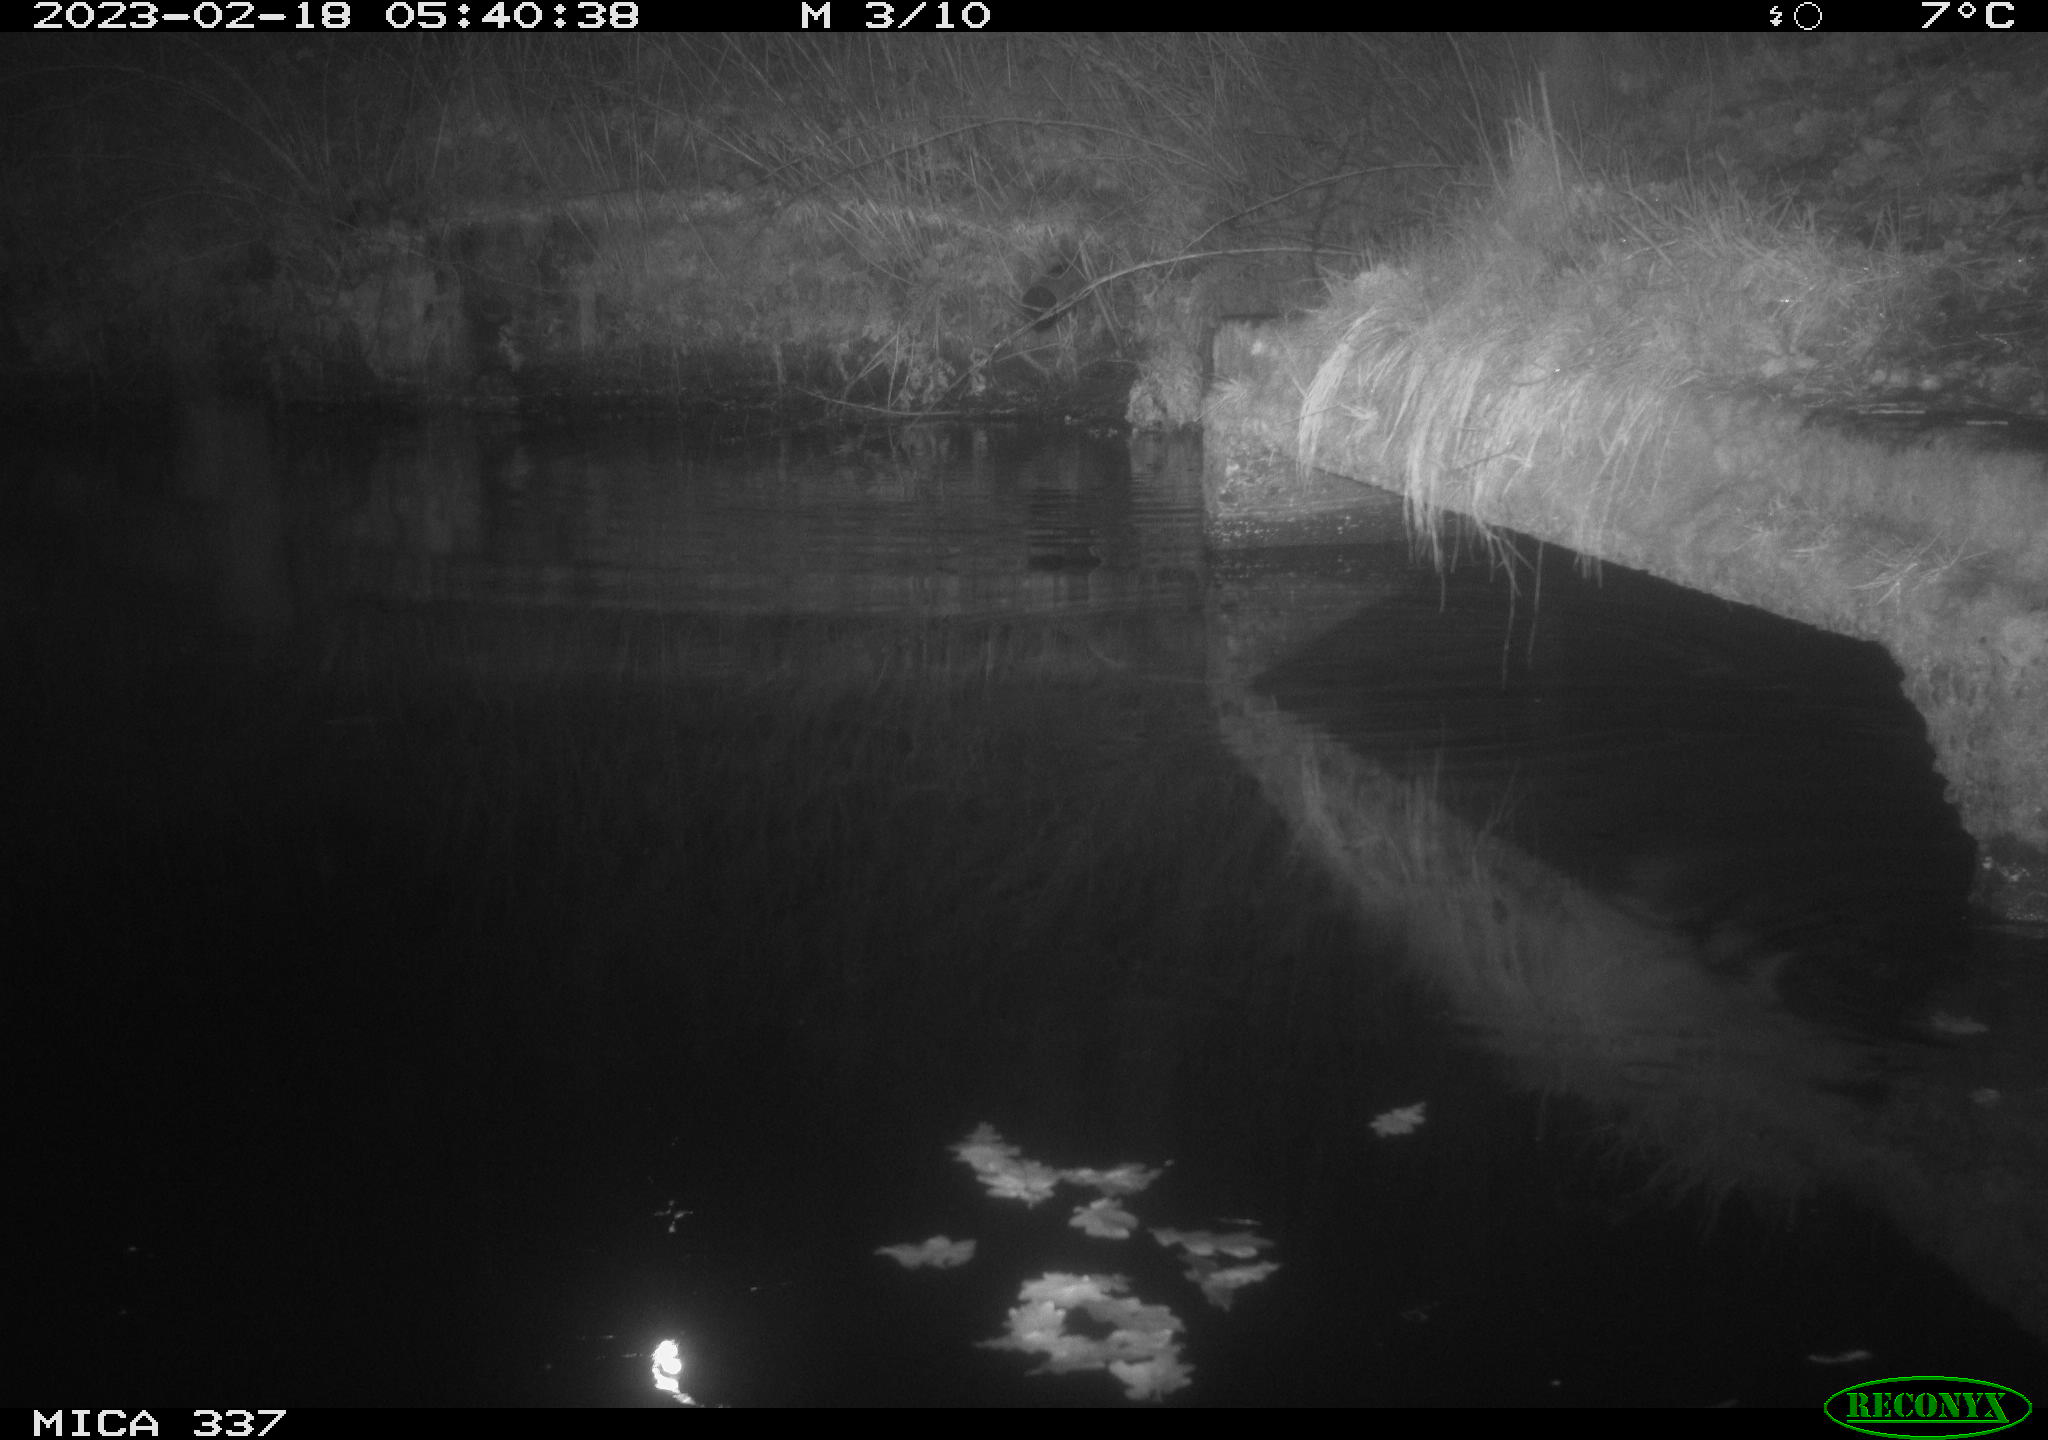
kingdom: Animalia
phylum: Chordata
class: Mammalia
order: Rodentia
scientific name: Rodentia
